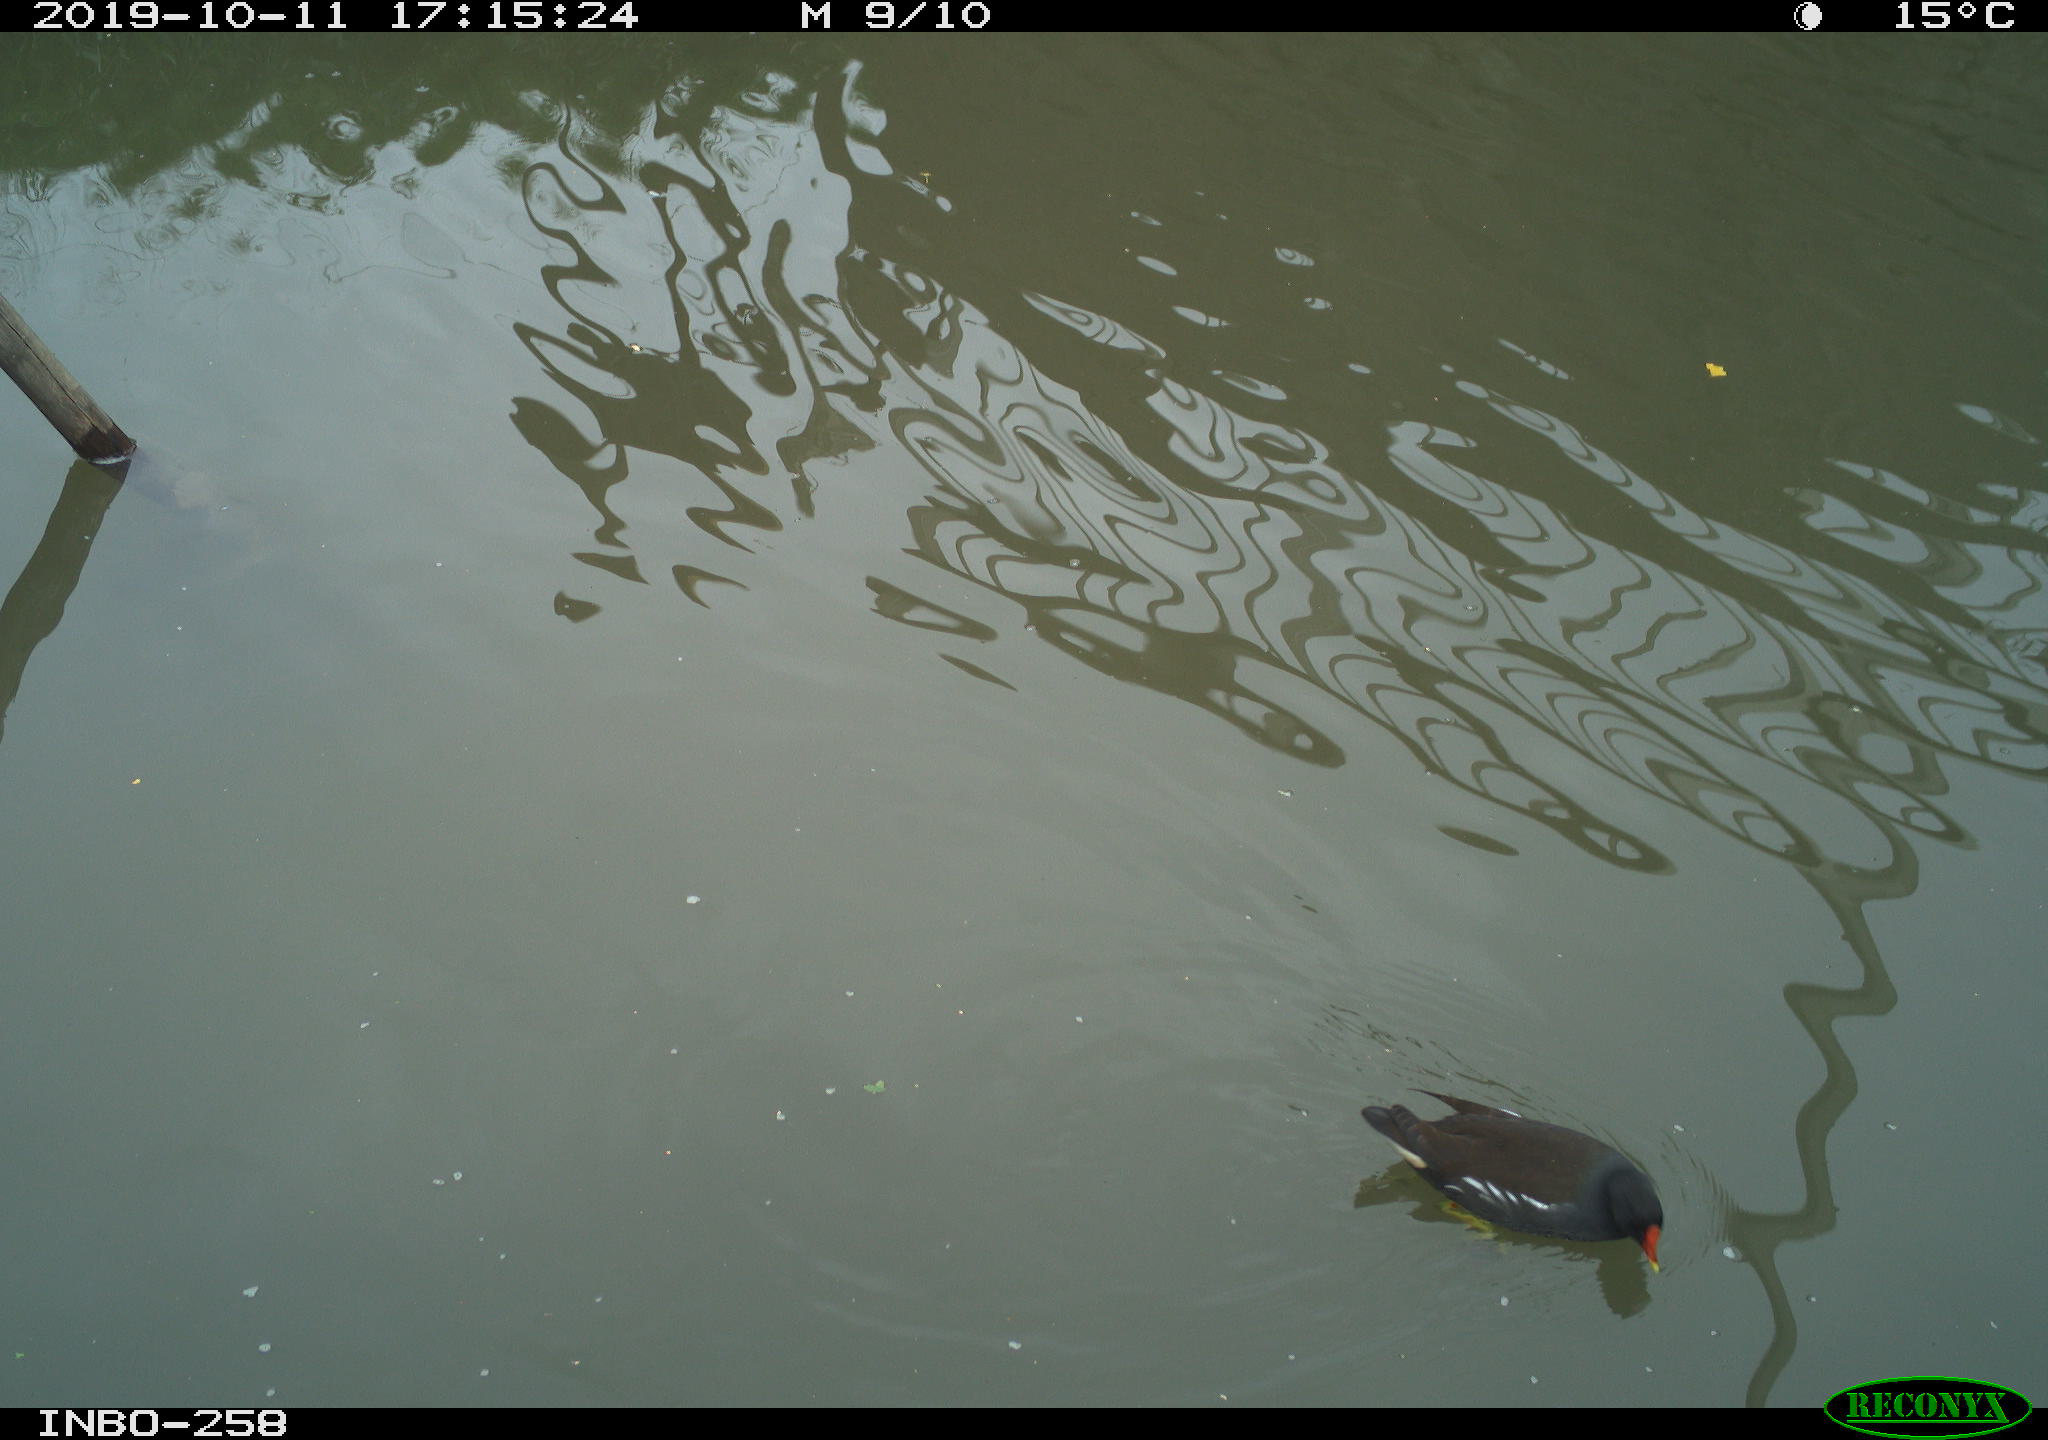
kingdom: Animalia
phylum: Chordata
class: Aves
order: Gruiformes
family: Rallidae
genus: Gallinula
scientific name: Gallinula chloropus
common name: Common moorhen
